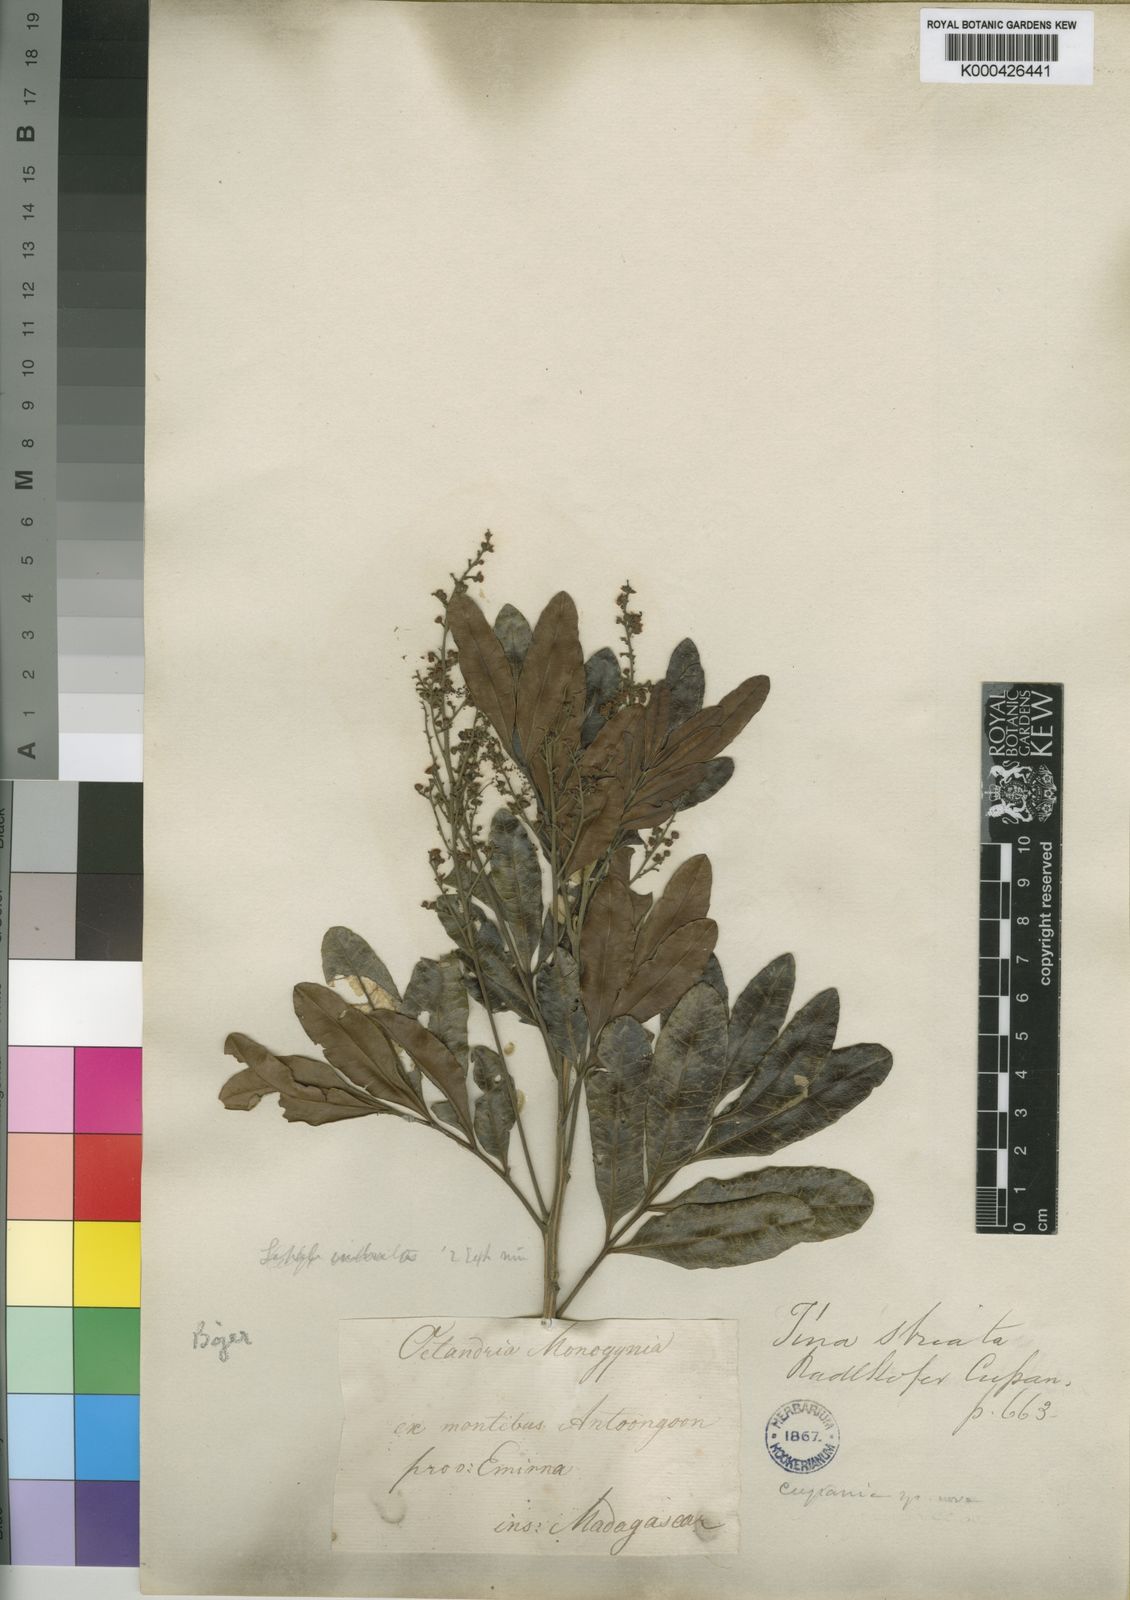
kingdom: Plantae
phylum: Tracheophyta
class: Magnoliopsida
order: Sapindales
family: Sapindaceae
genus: Tina
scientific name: Tina striata
